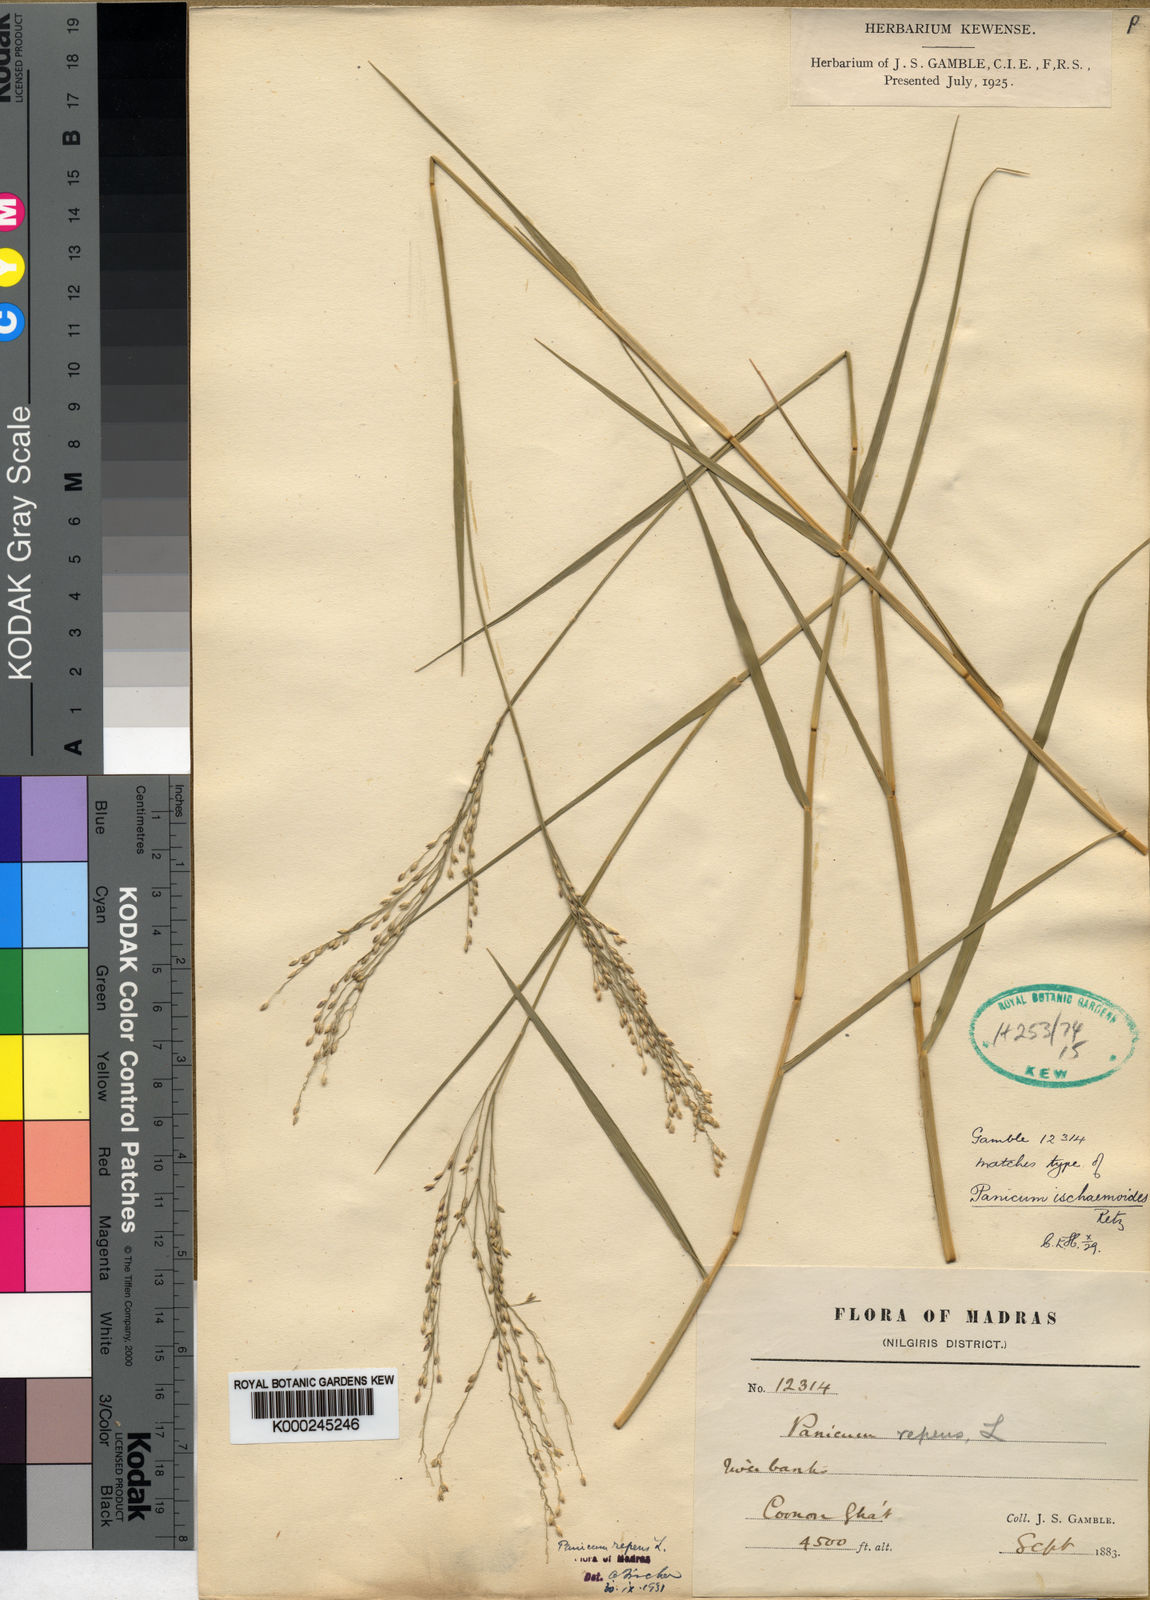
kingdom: Plantae
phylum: Tracheophyta
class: Liliopsida
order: Poales
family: Poaceae
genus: Panicum
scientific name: Panicum repens
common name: Torpedo grass
